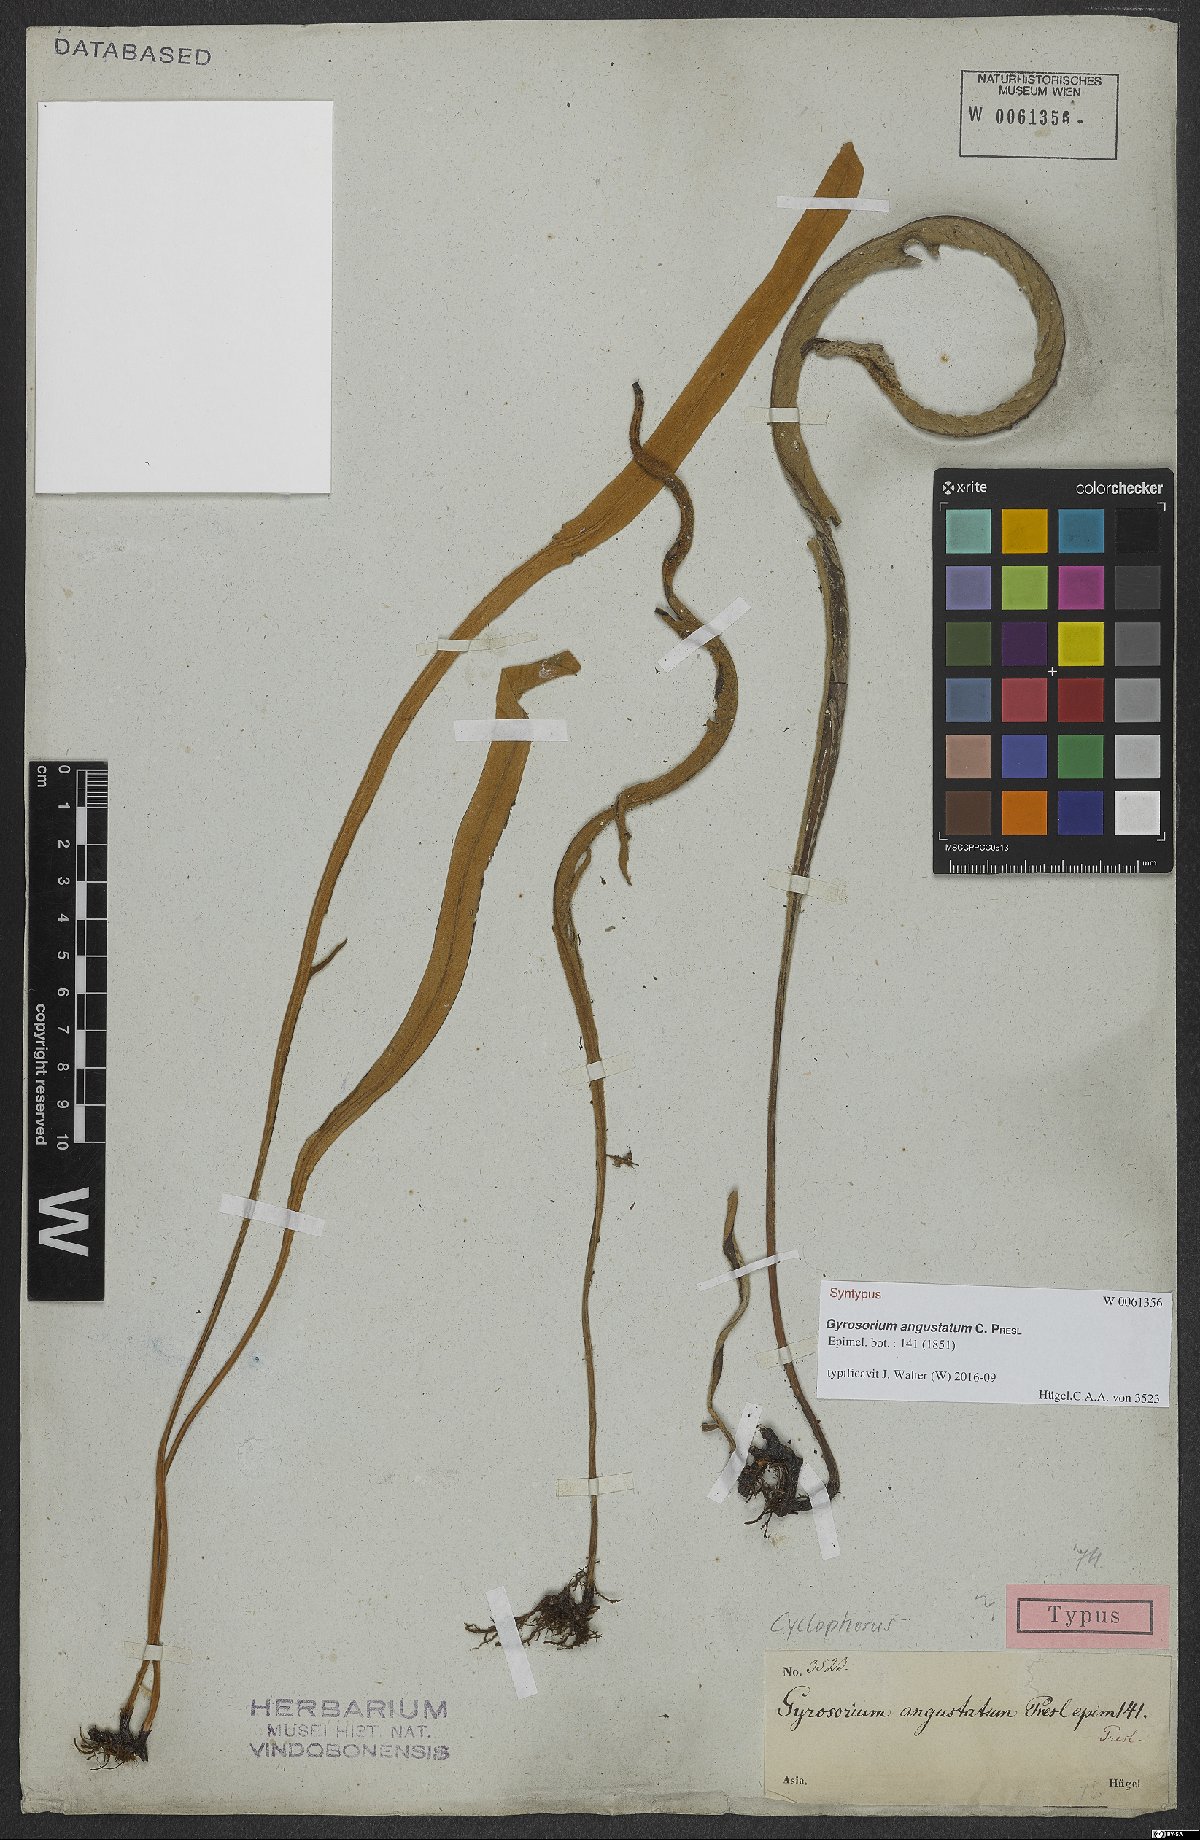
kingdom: Plantae
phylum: Tracheophyta
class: Polypodiopsida
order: Polypodiales
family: Polypodiaceae
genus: Pyrrosia
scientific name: Pyrrosia Gyrosorium angustatum
